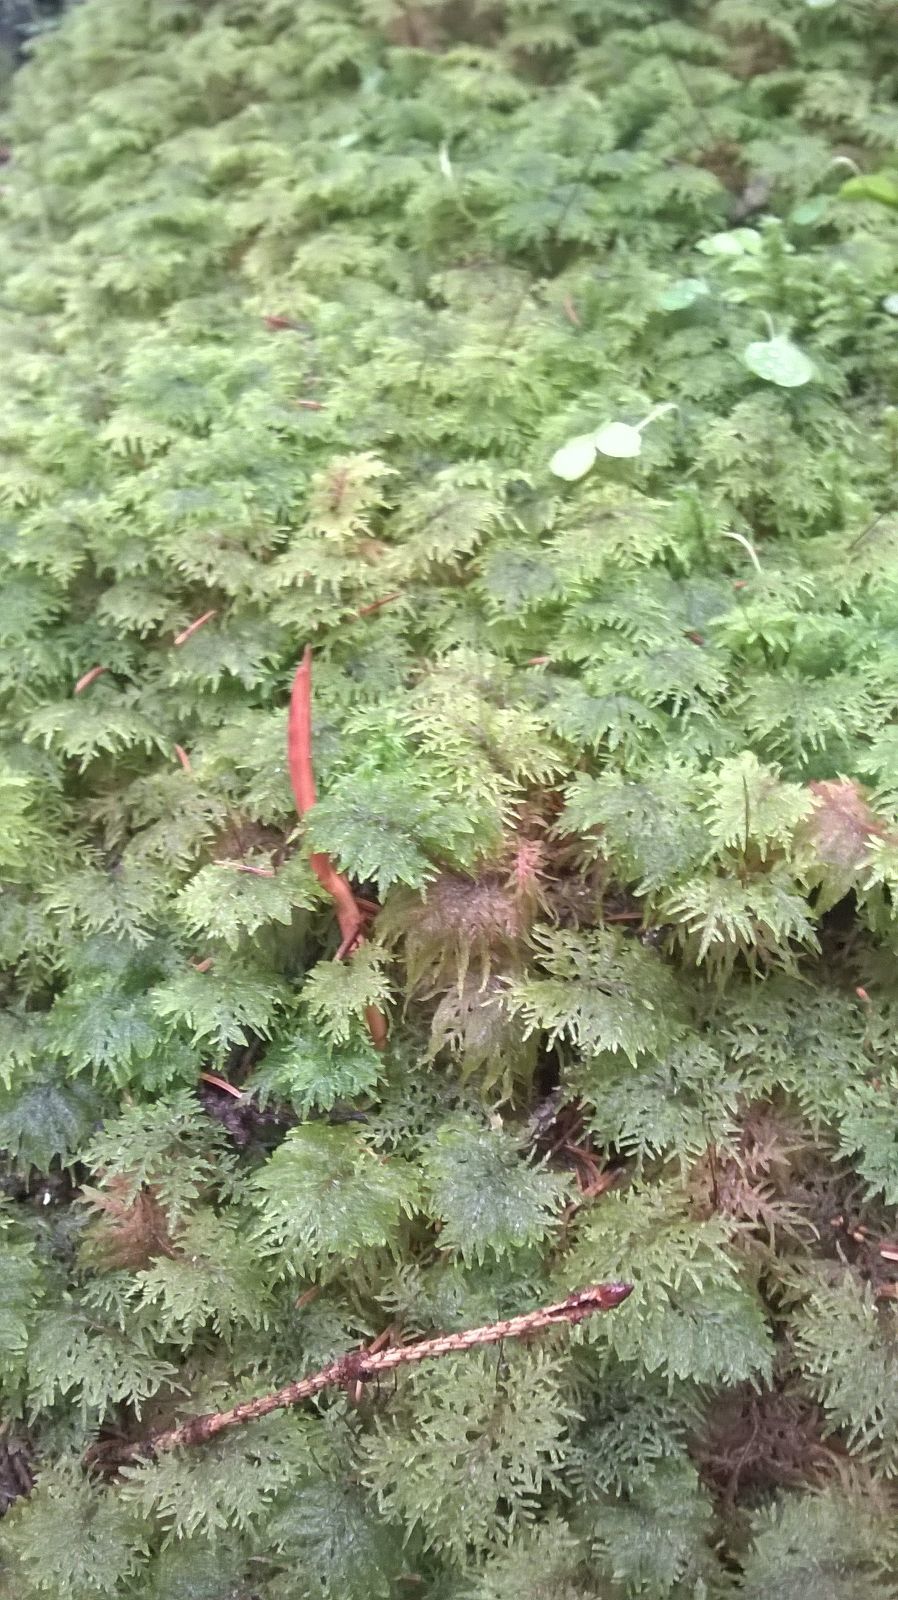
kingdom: Plantae
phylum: Bryophyta
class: Bryopsida
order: Hypnales
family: Hylocomiaceae
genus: Hylocomium
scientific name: Hylocomium splendens
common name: Stairstep moss
